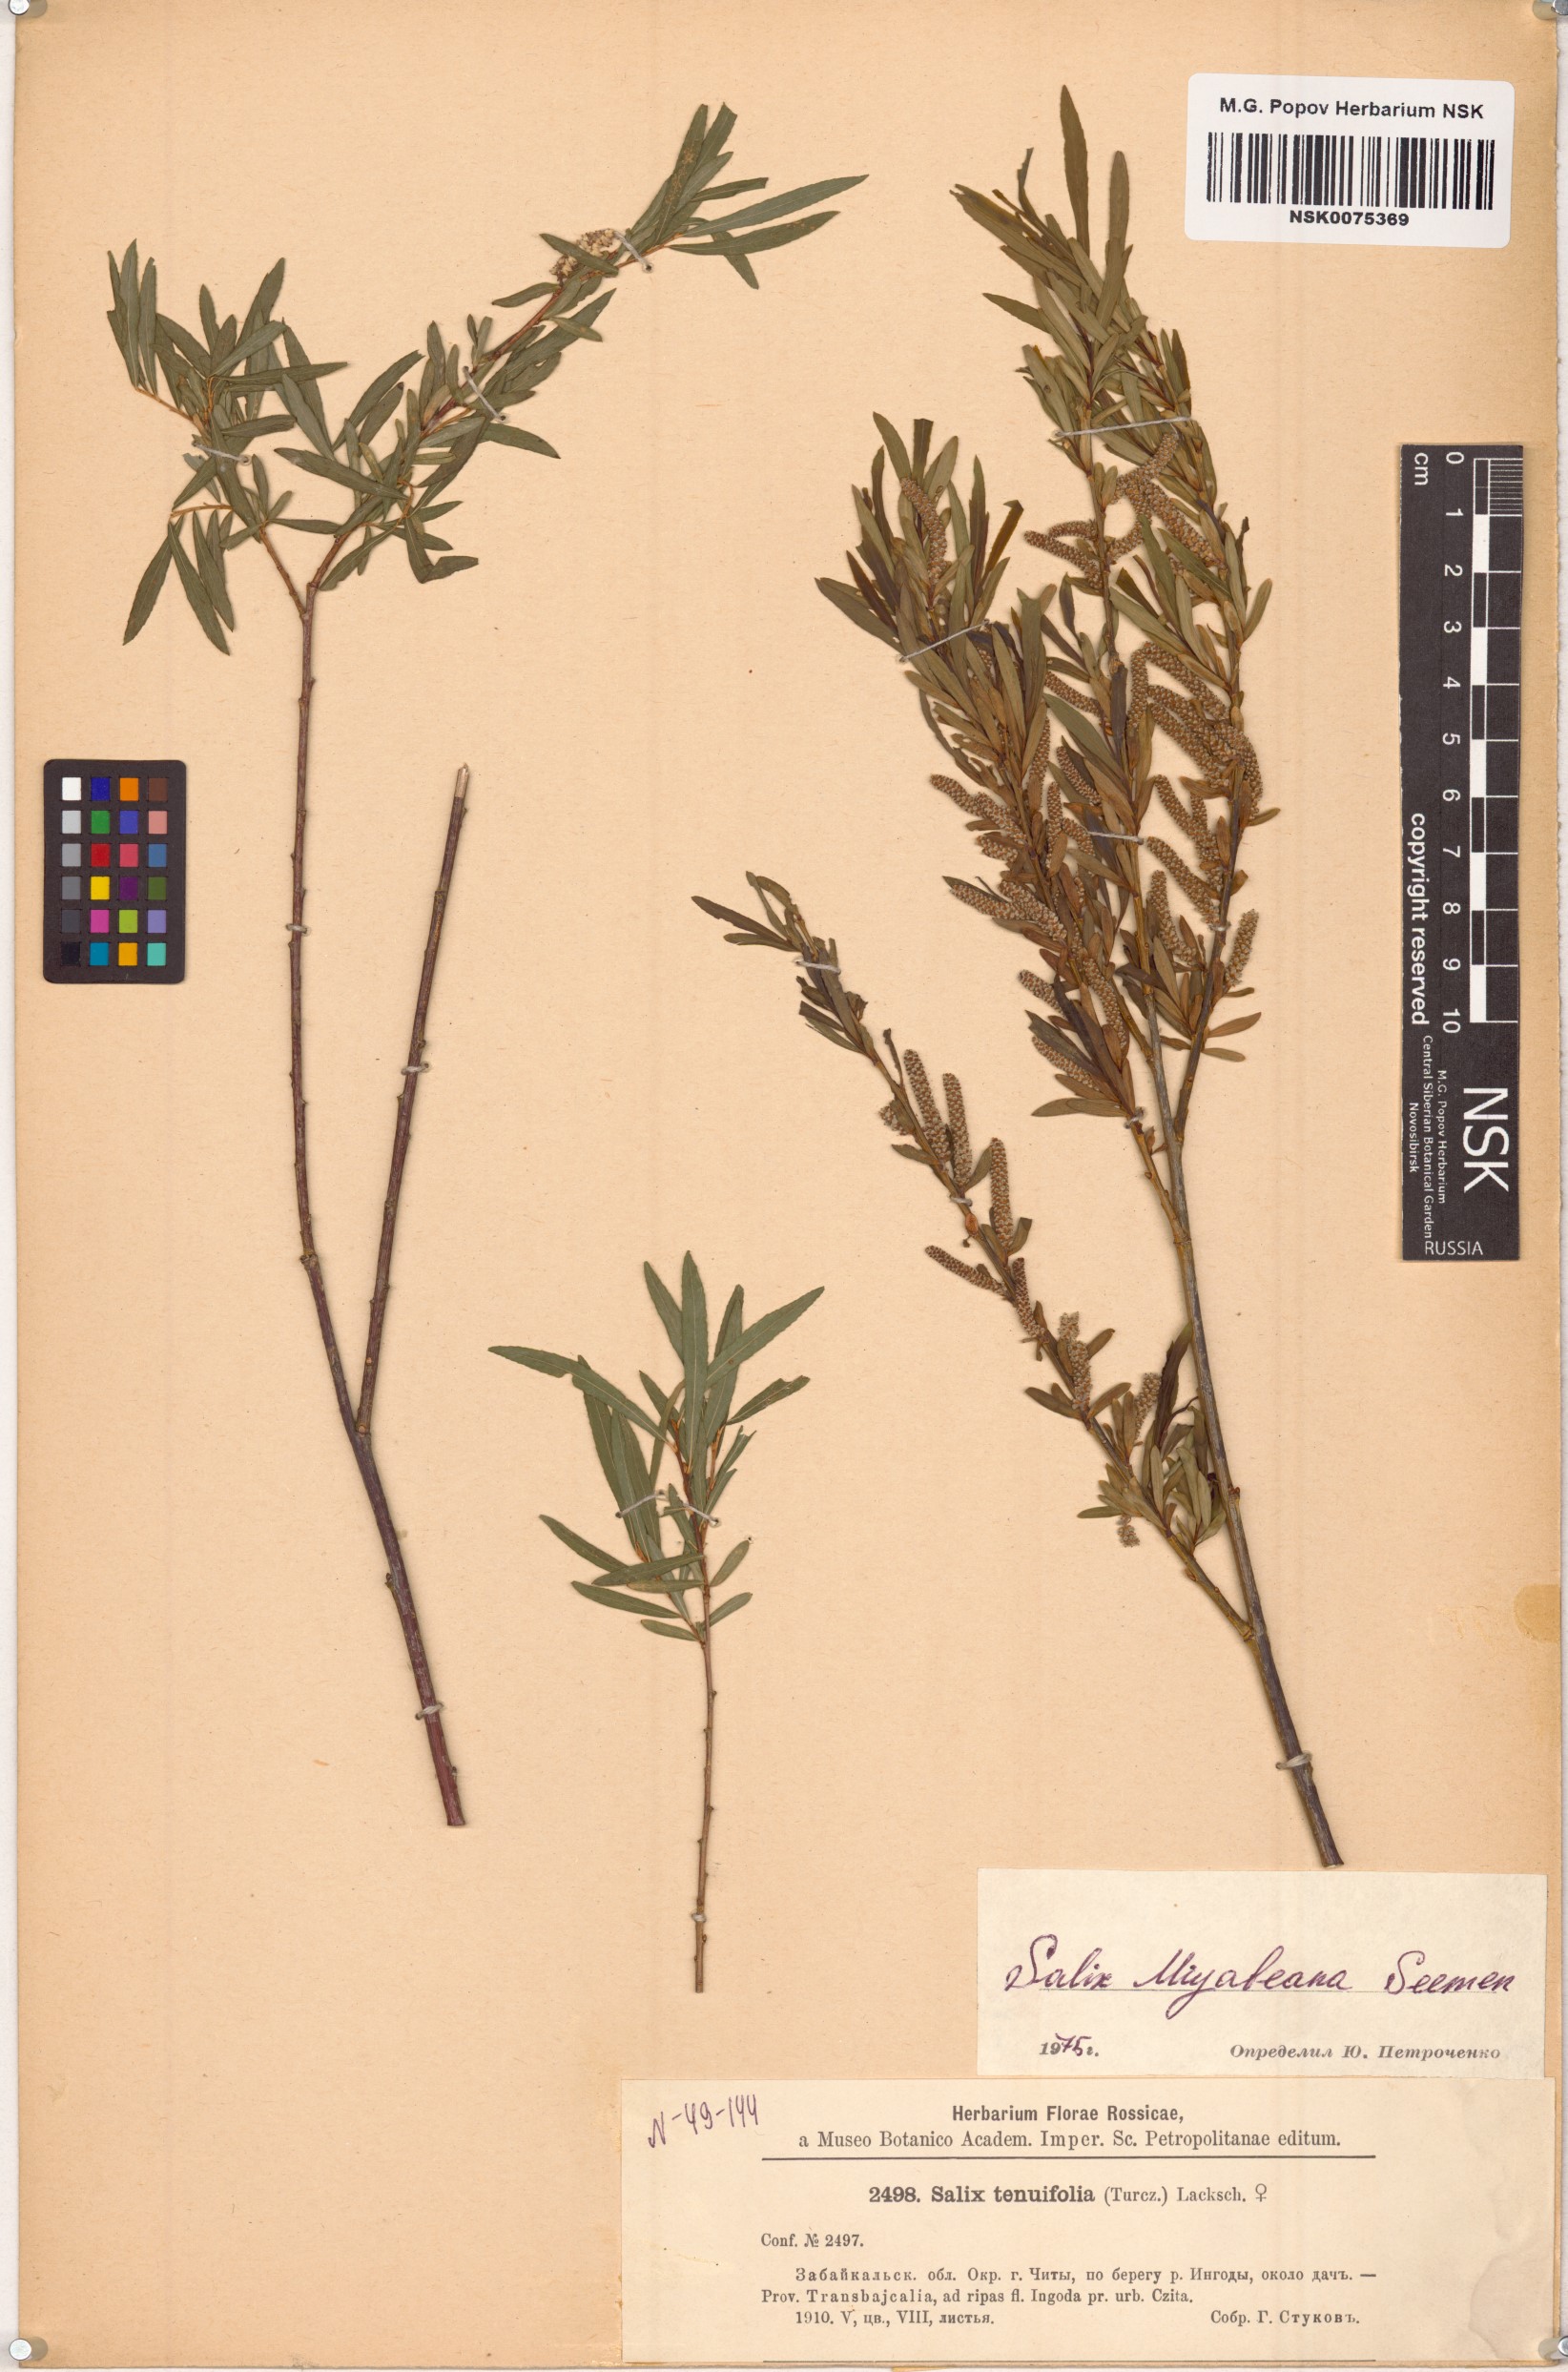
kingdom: Plantae
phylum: Tracheophyta
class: Magnoliopsida
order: Malpighiales
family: Salicaceae
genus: Salix
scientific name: Salix miyabeana
